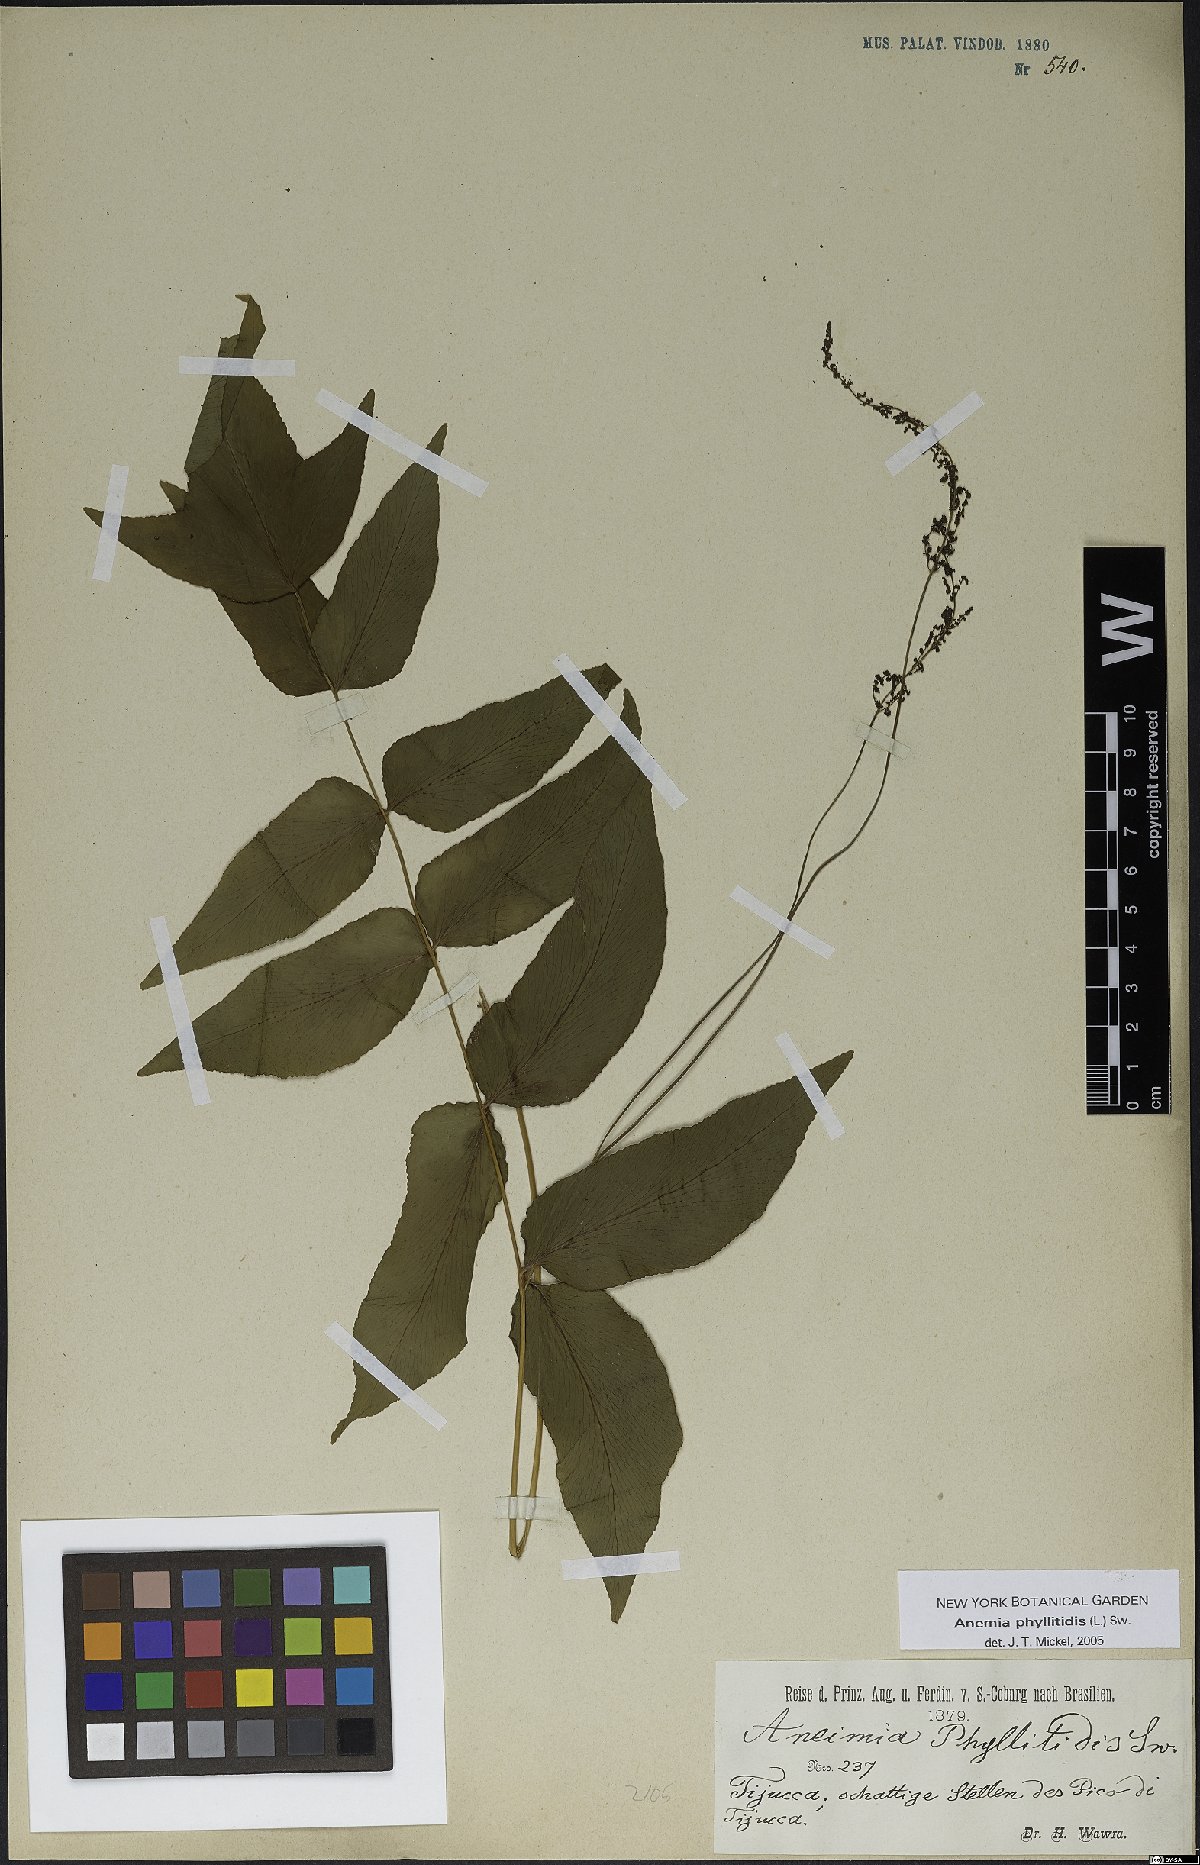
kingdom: Plantae
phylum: Tracheophyta
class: Polypodiopsida
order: Schizaeales
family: Anemiaceae
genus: Anemia
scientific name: Anemia phyllitidis
